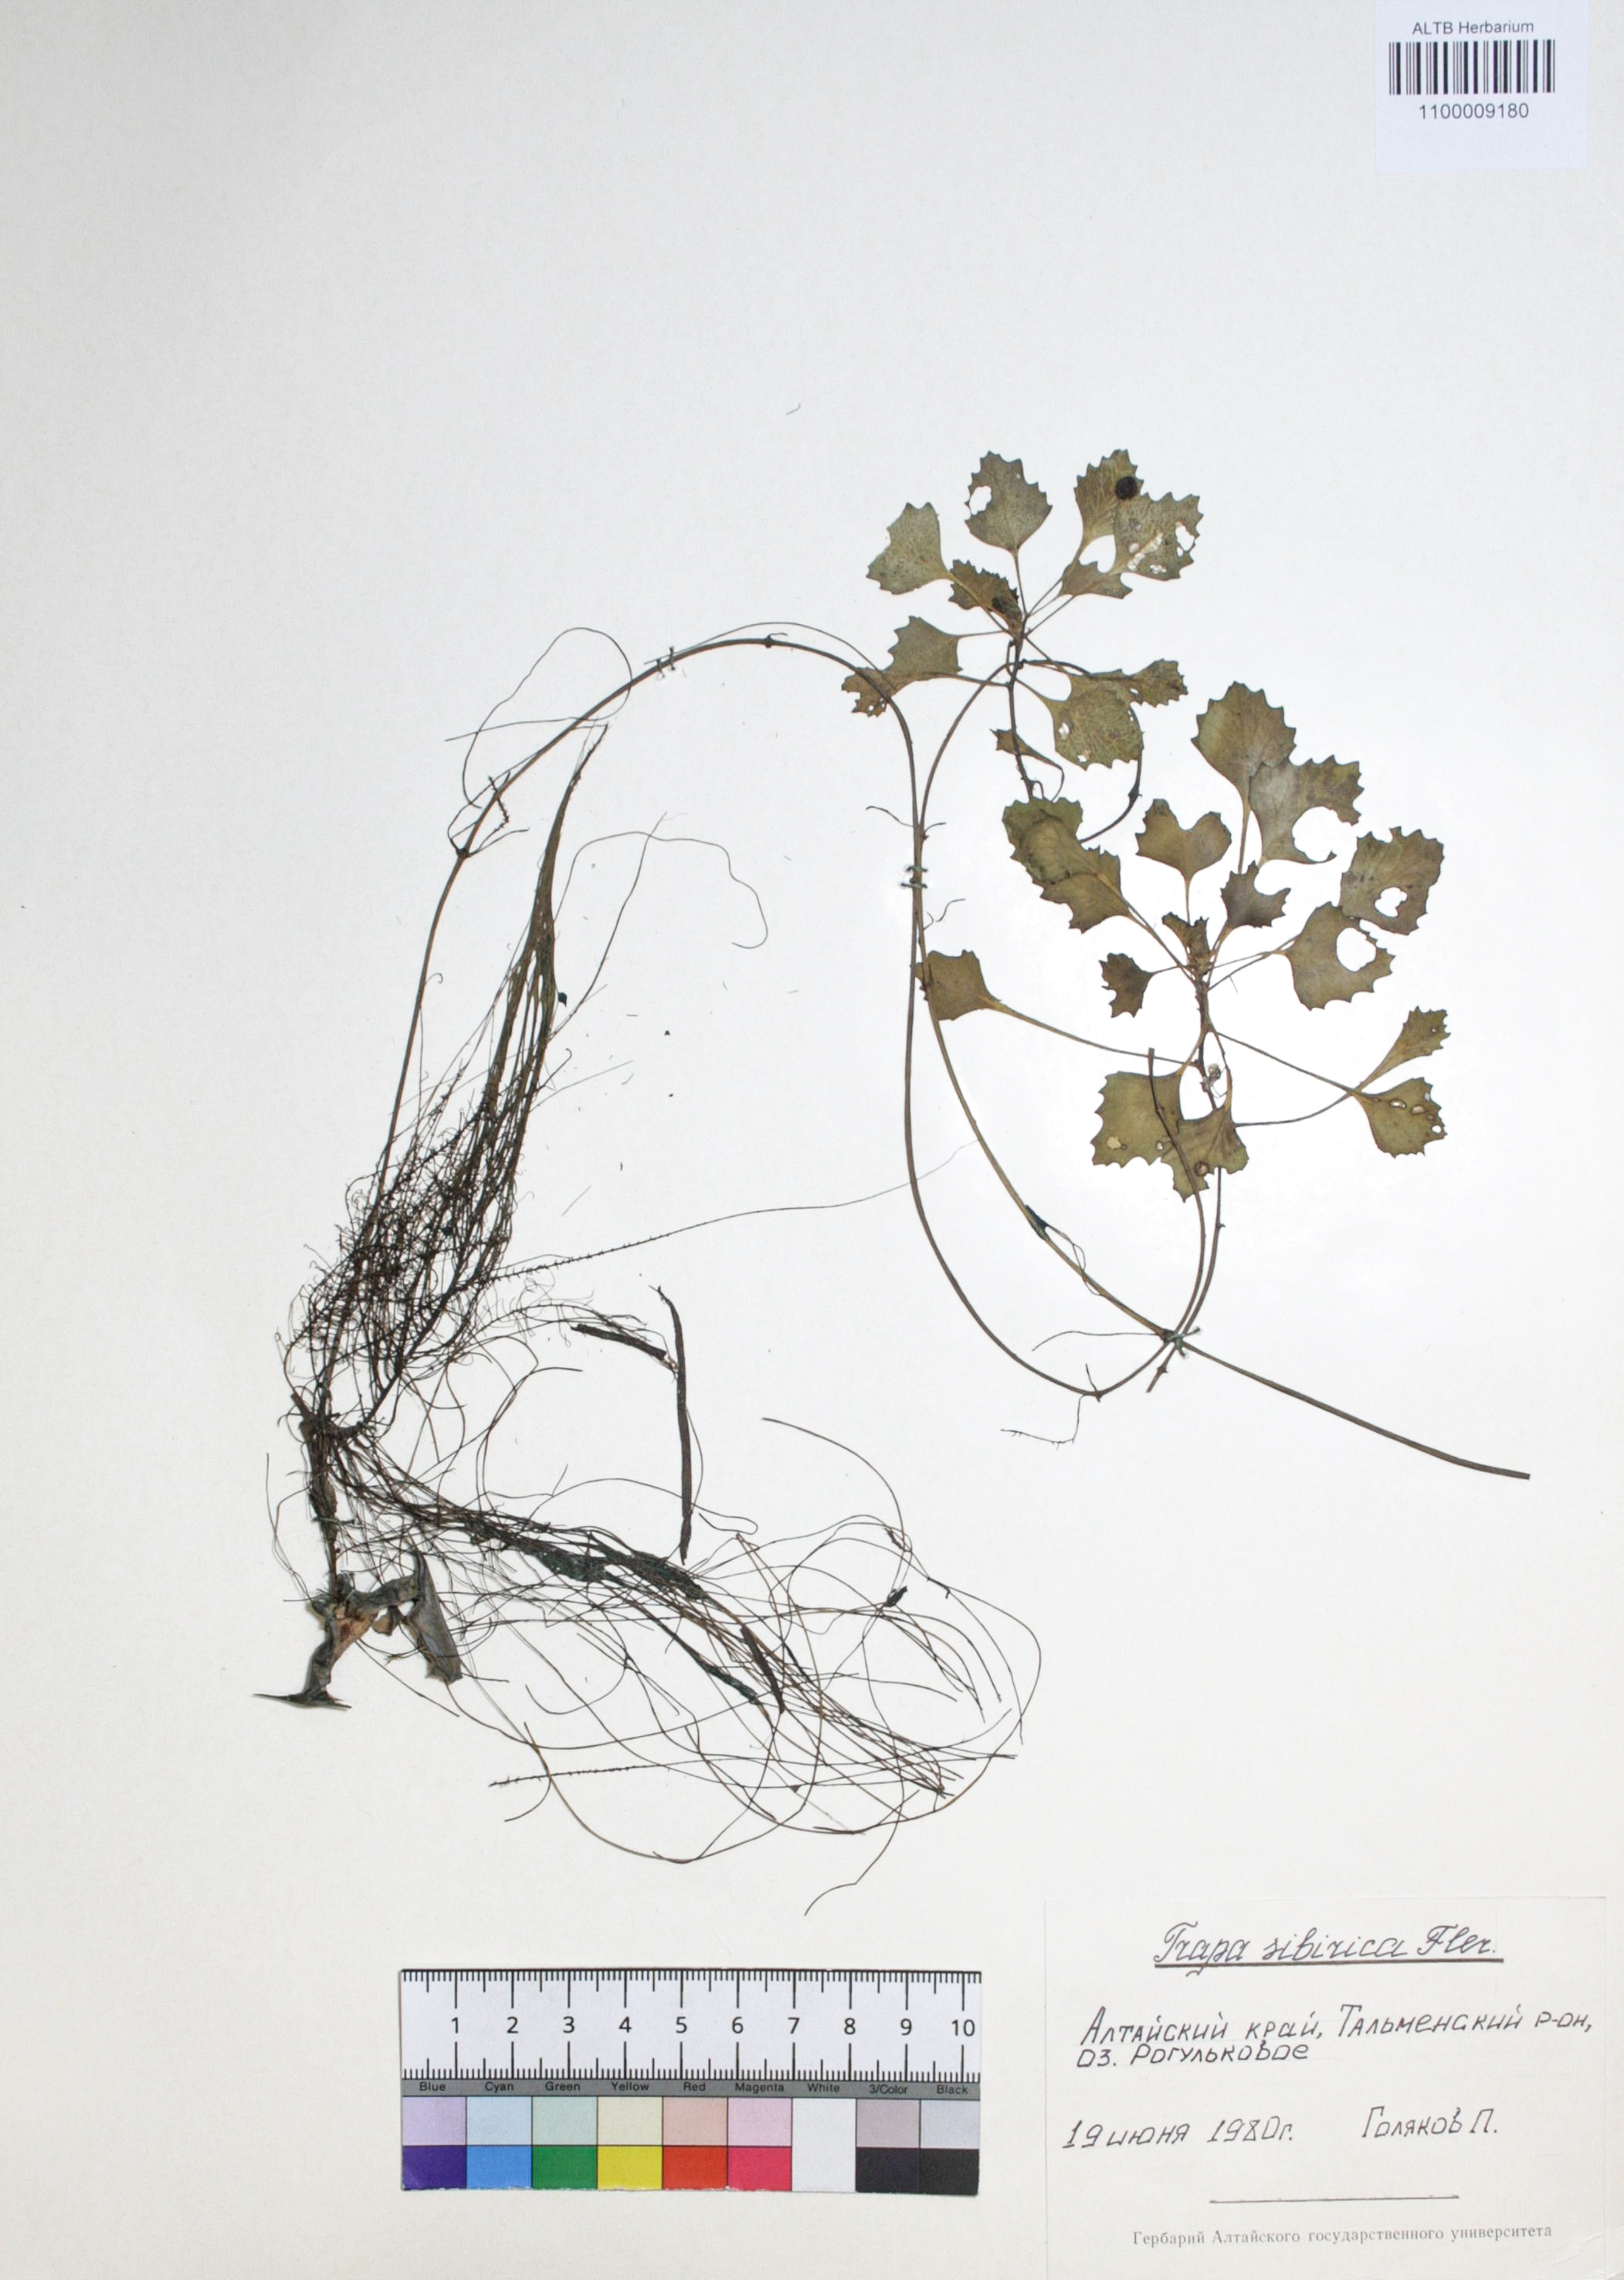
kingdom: Plantae
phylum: Tracheophyta
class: Magnoliopsida
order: Myrtales
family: Lythraceae
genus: Trapa
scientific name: Trapa natans
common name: Water chestnut
